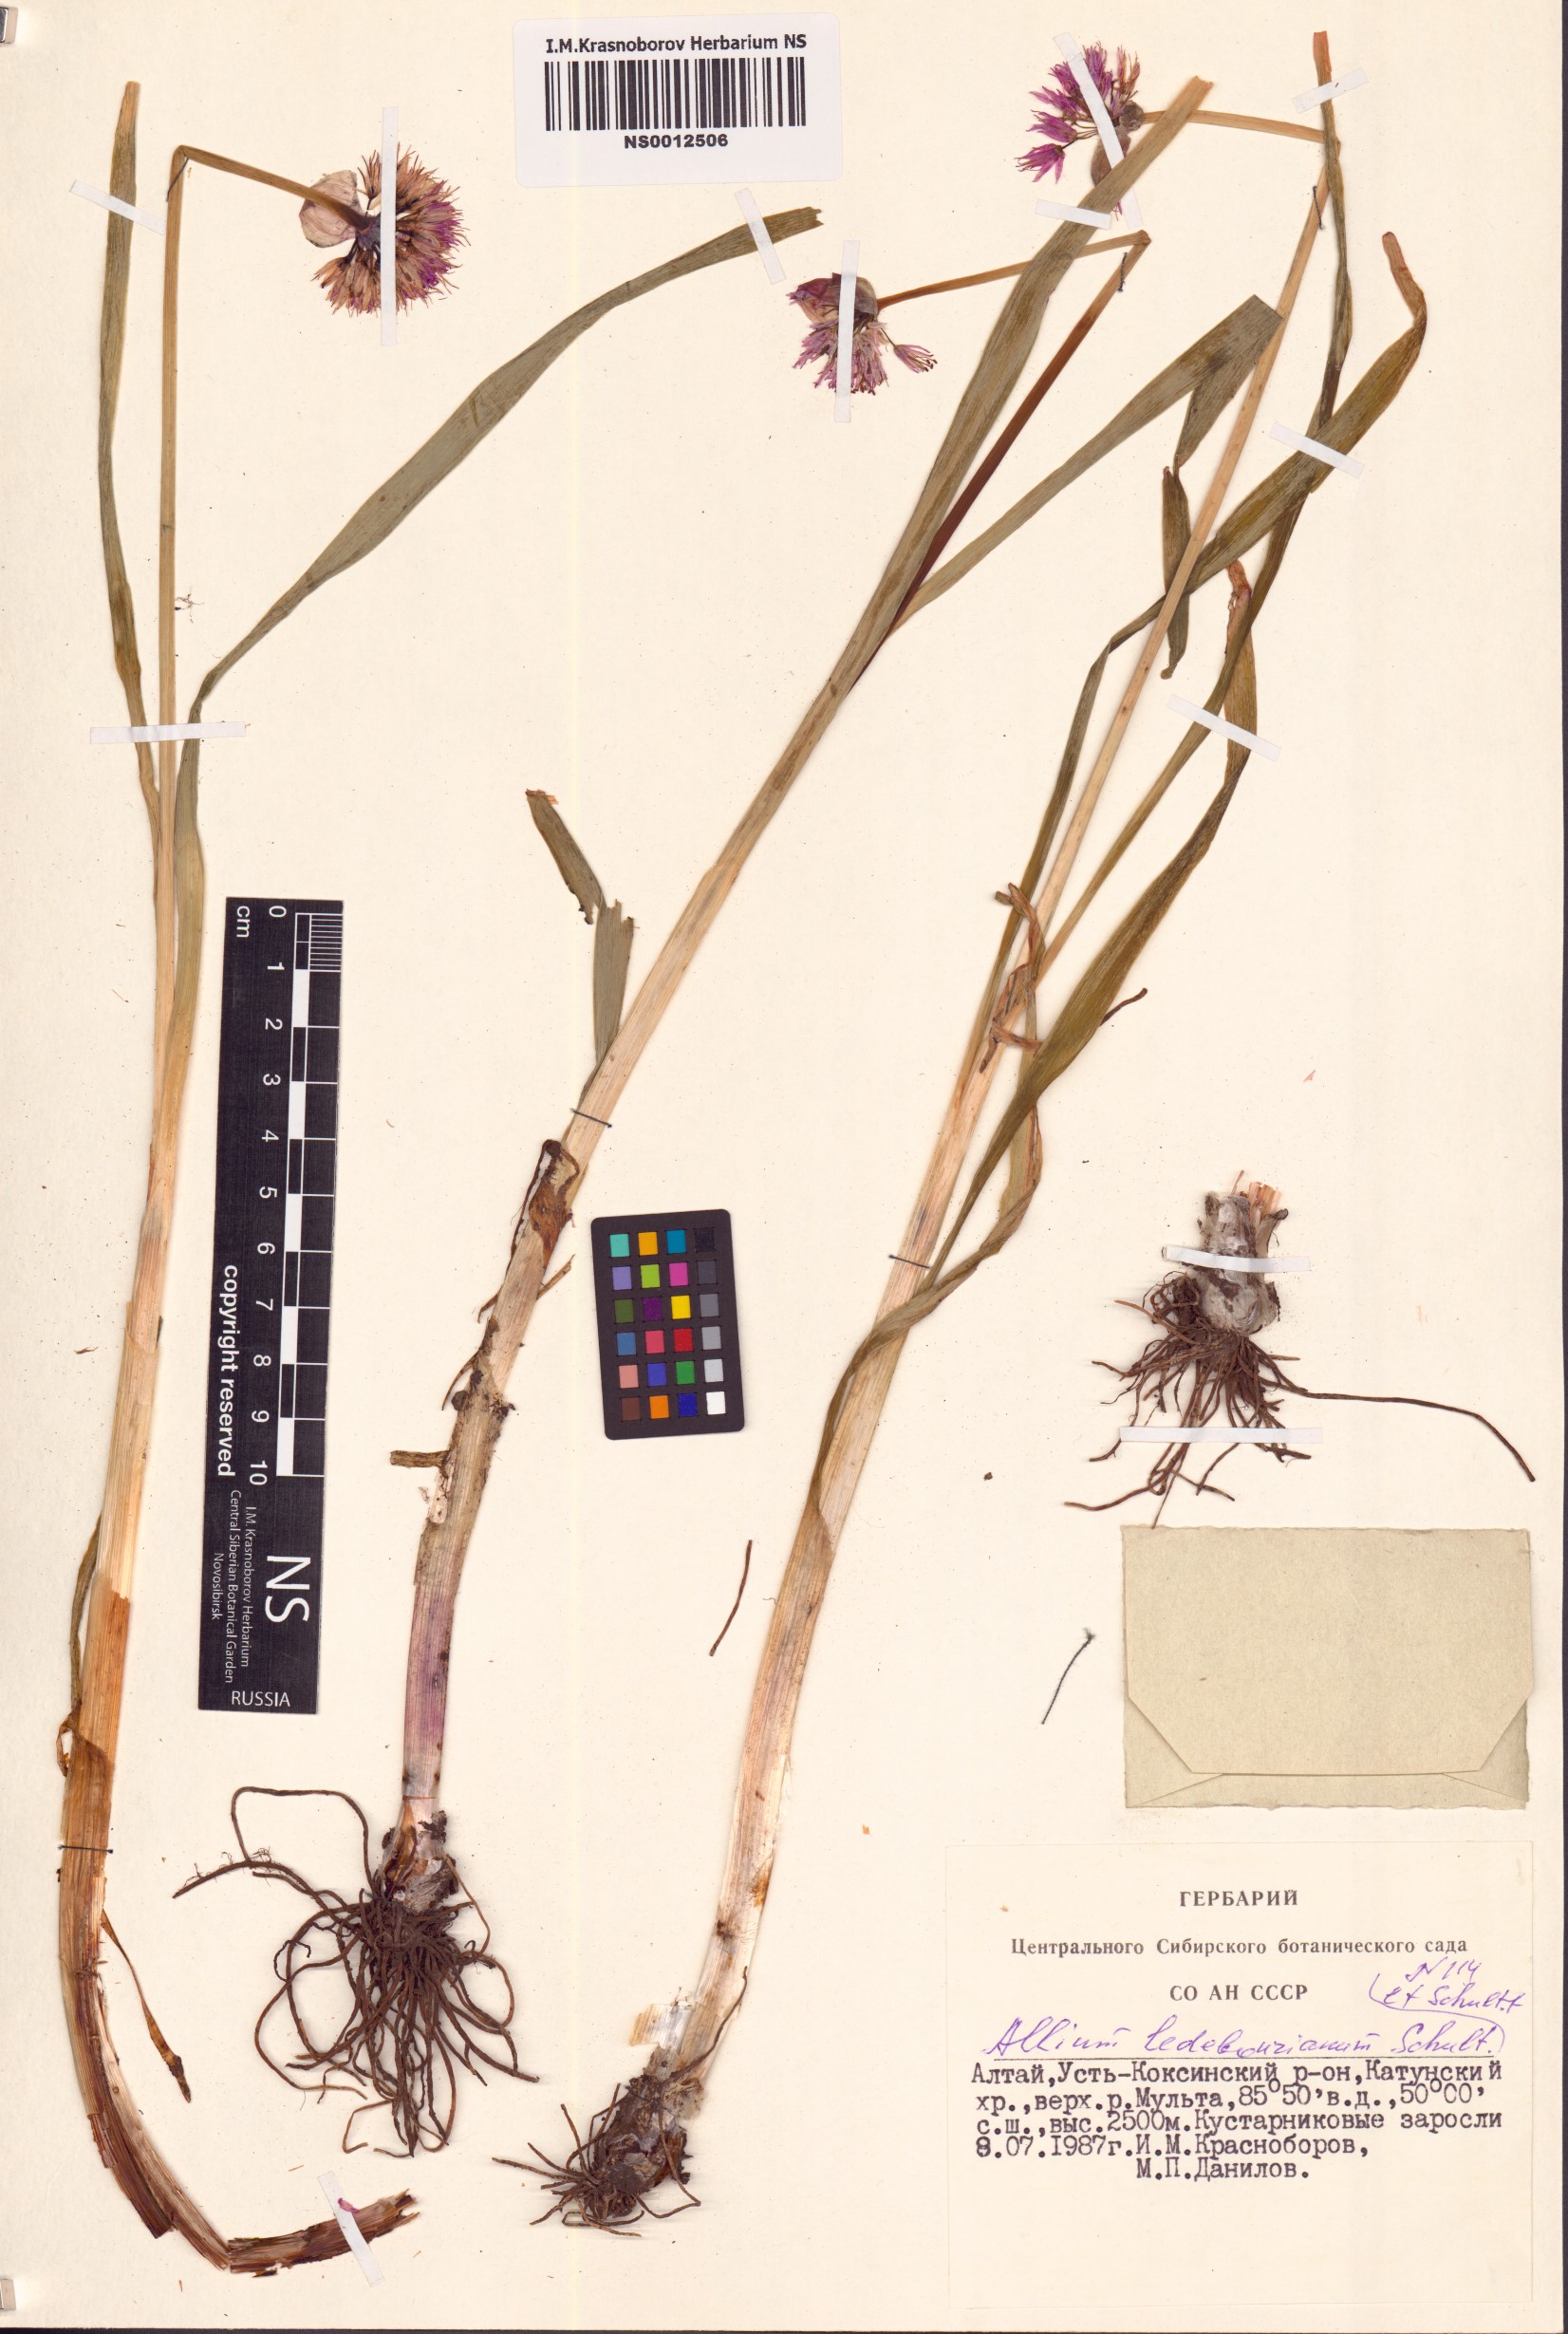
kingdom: Plantae
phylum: Tracheophyta
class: Liliopsida
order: Asparagales
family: Amaryllidaceae
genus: Allium
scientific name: Allium ledebourianum
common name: Ledebour chive
